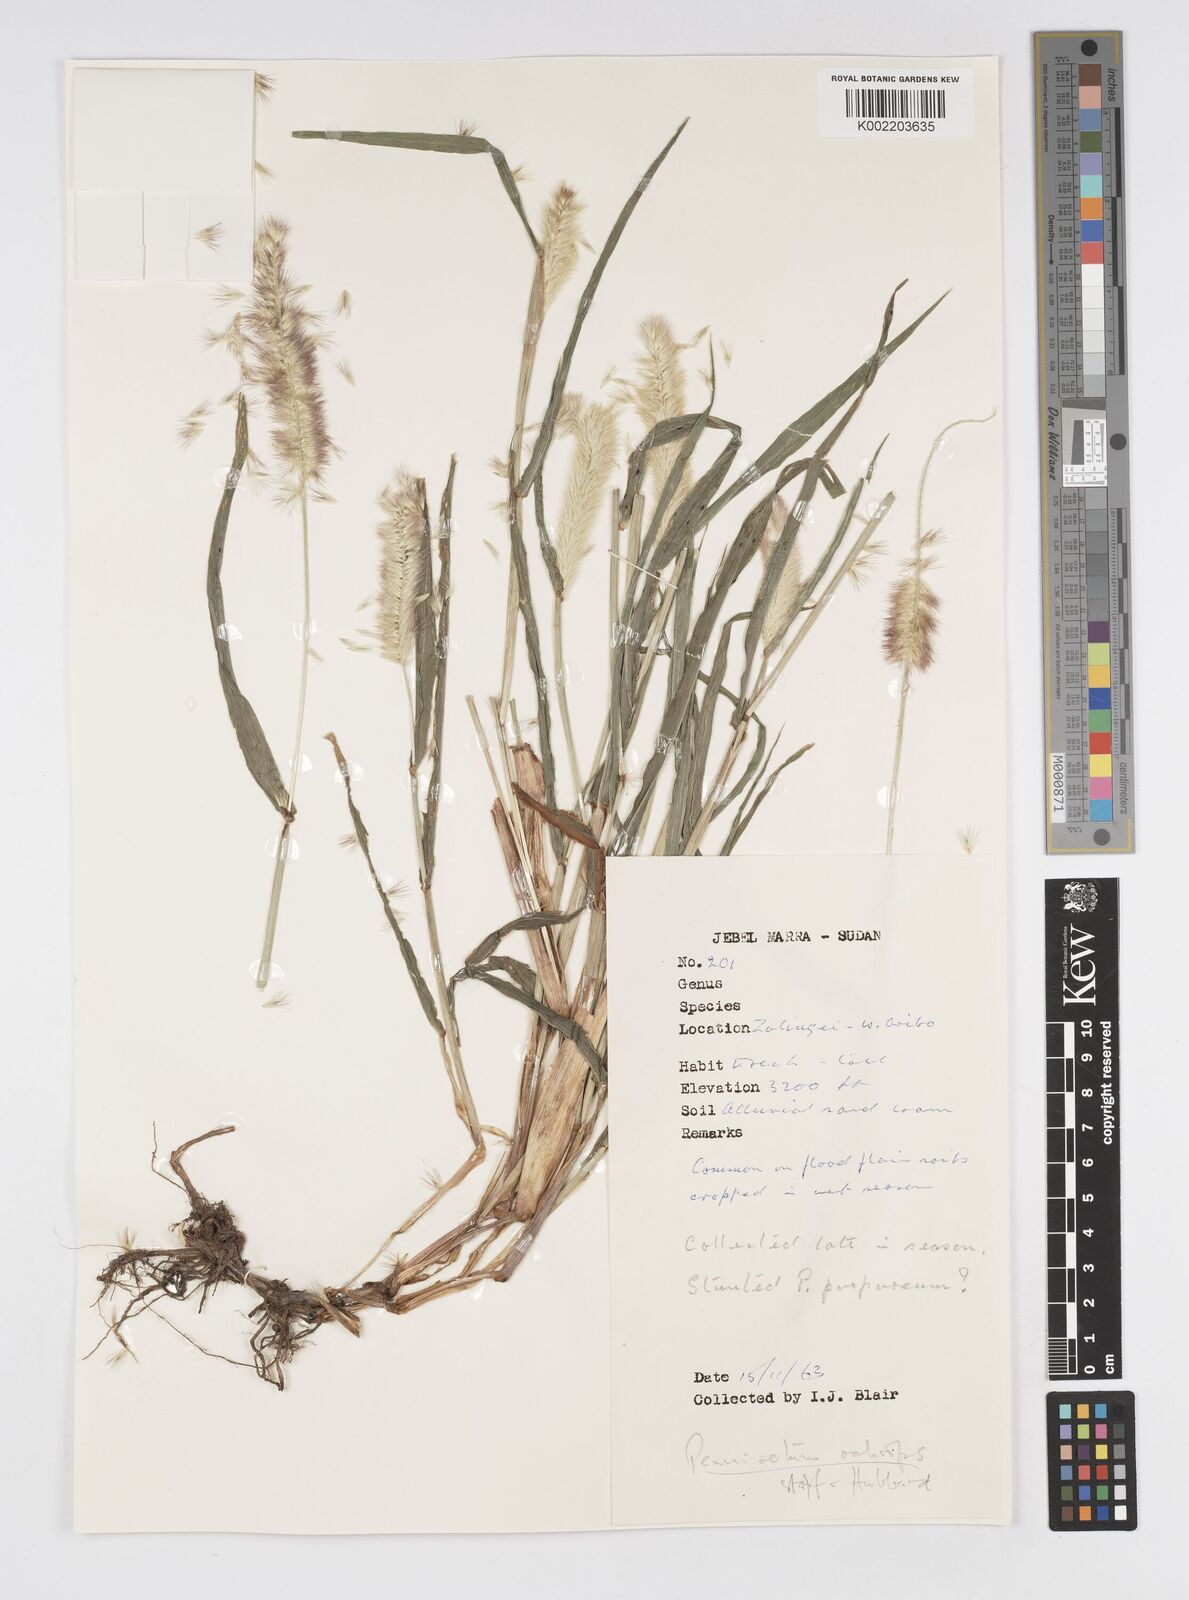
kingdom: Plantae
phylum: Tracheophyta
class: Liliopsida
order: Poales
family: Poaceae
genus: Cenchrus
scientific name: Cenchrus violaceus
